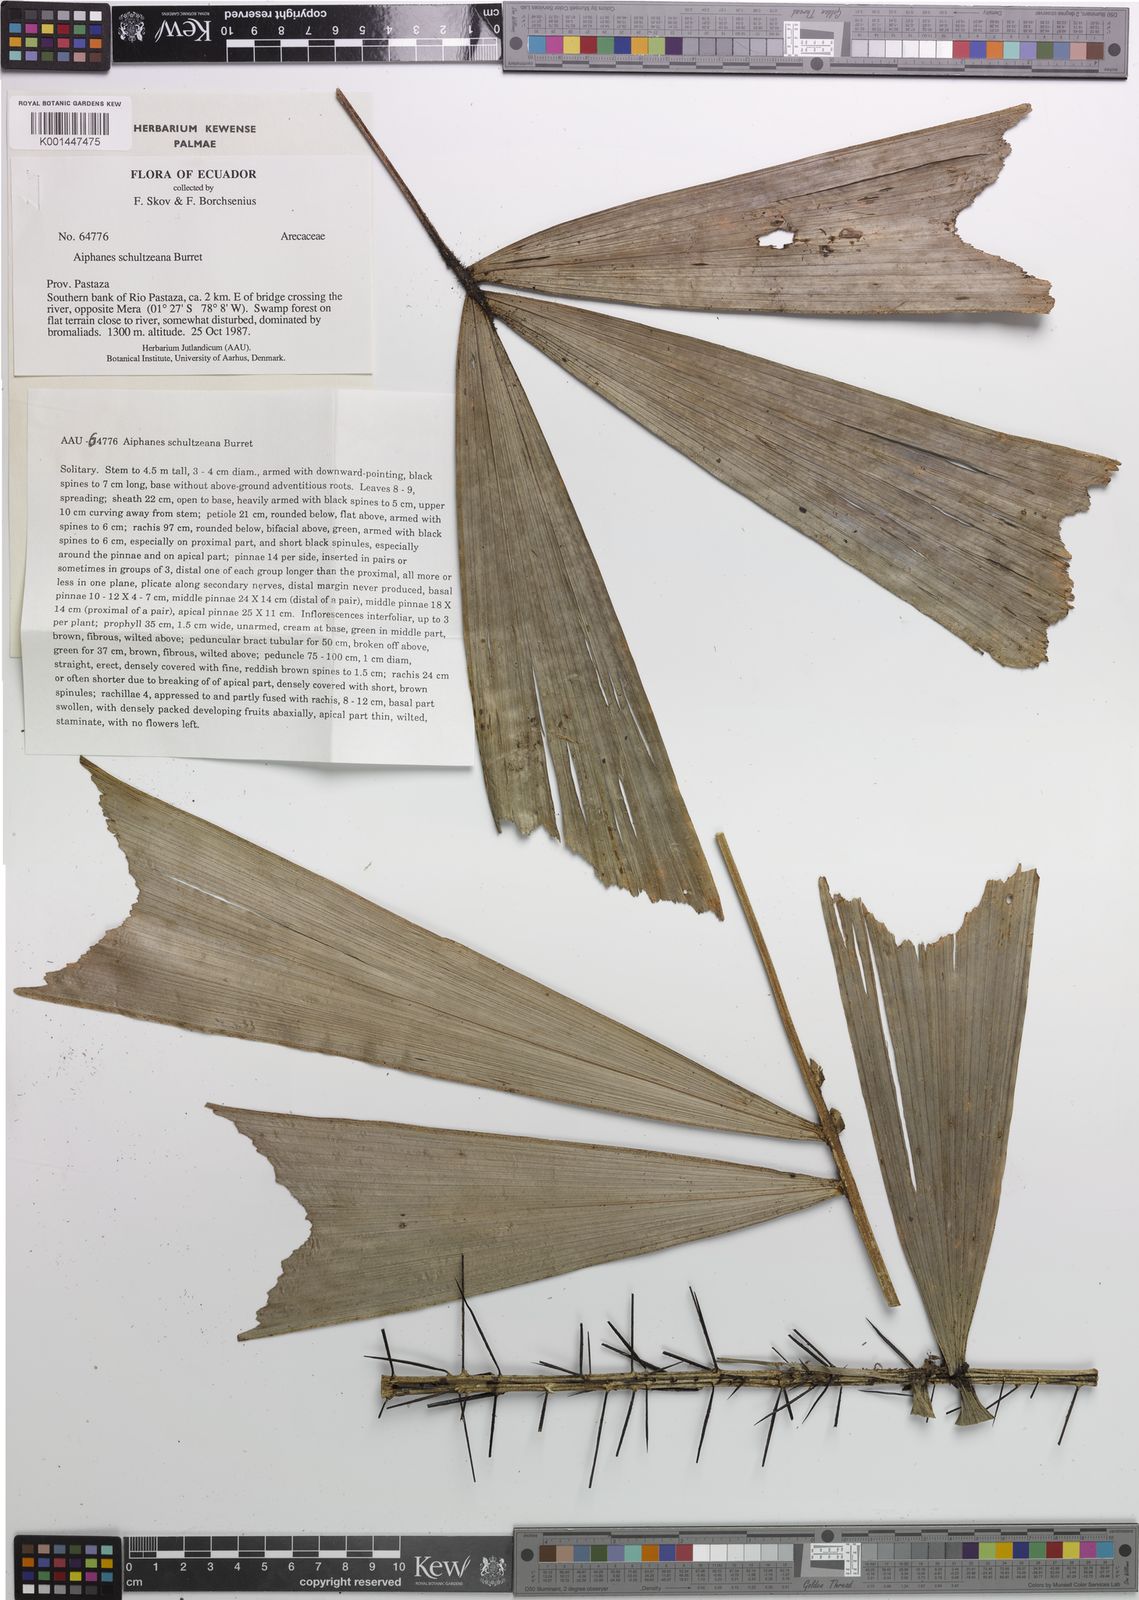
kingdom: Plantae
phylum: Tracheophyta
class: Liliopsida
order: Arecales
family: Arecaceae
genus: Aiphanes
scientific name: Aiphanes ulei
